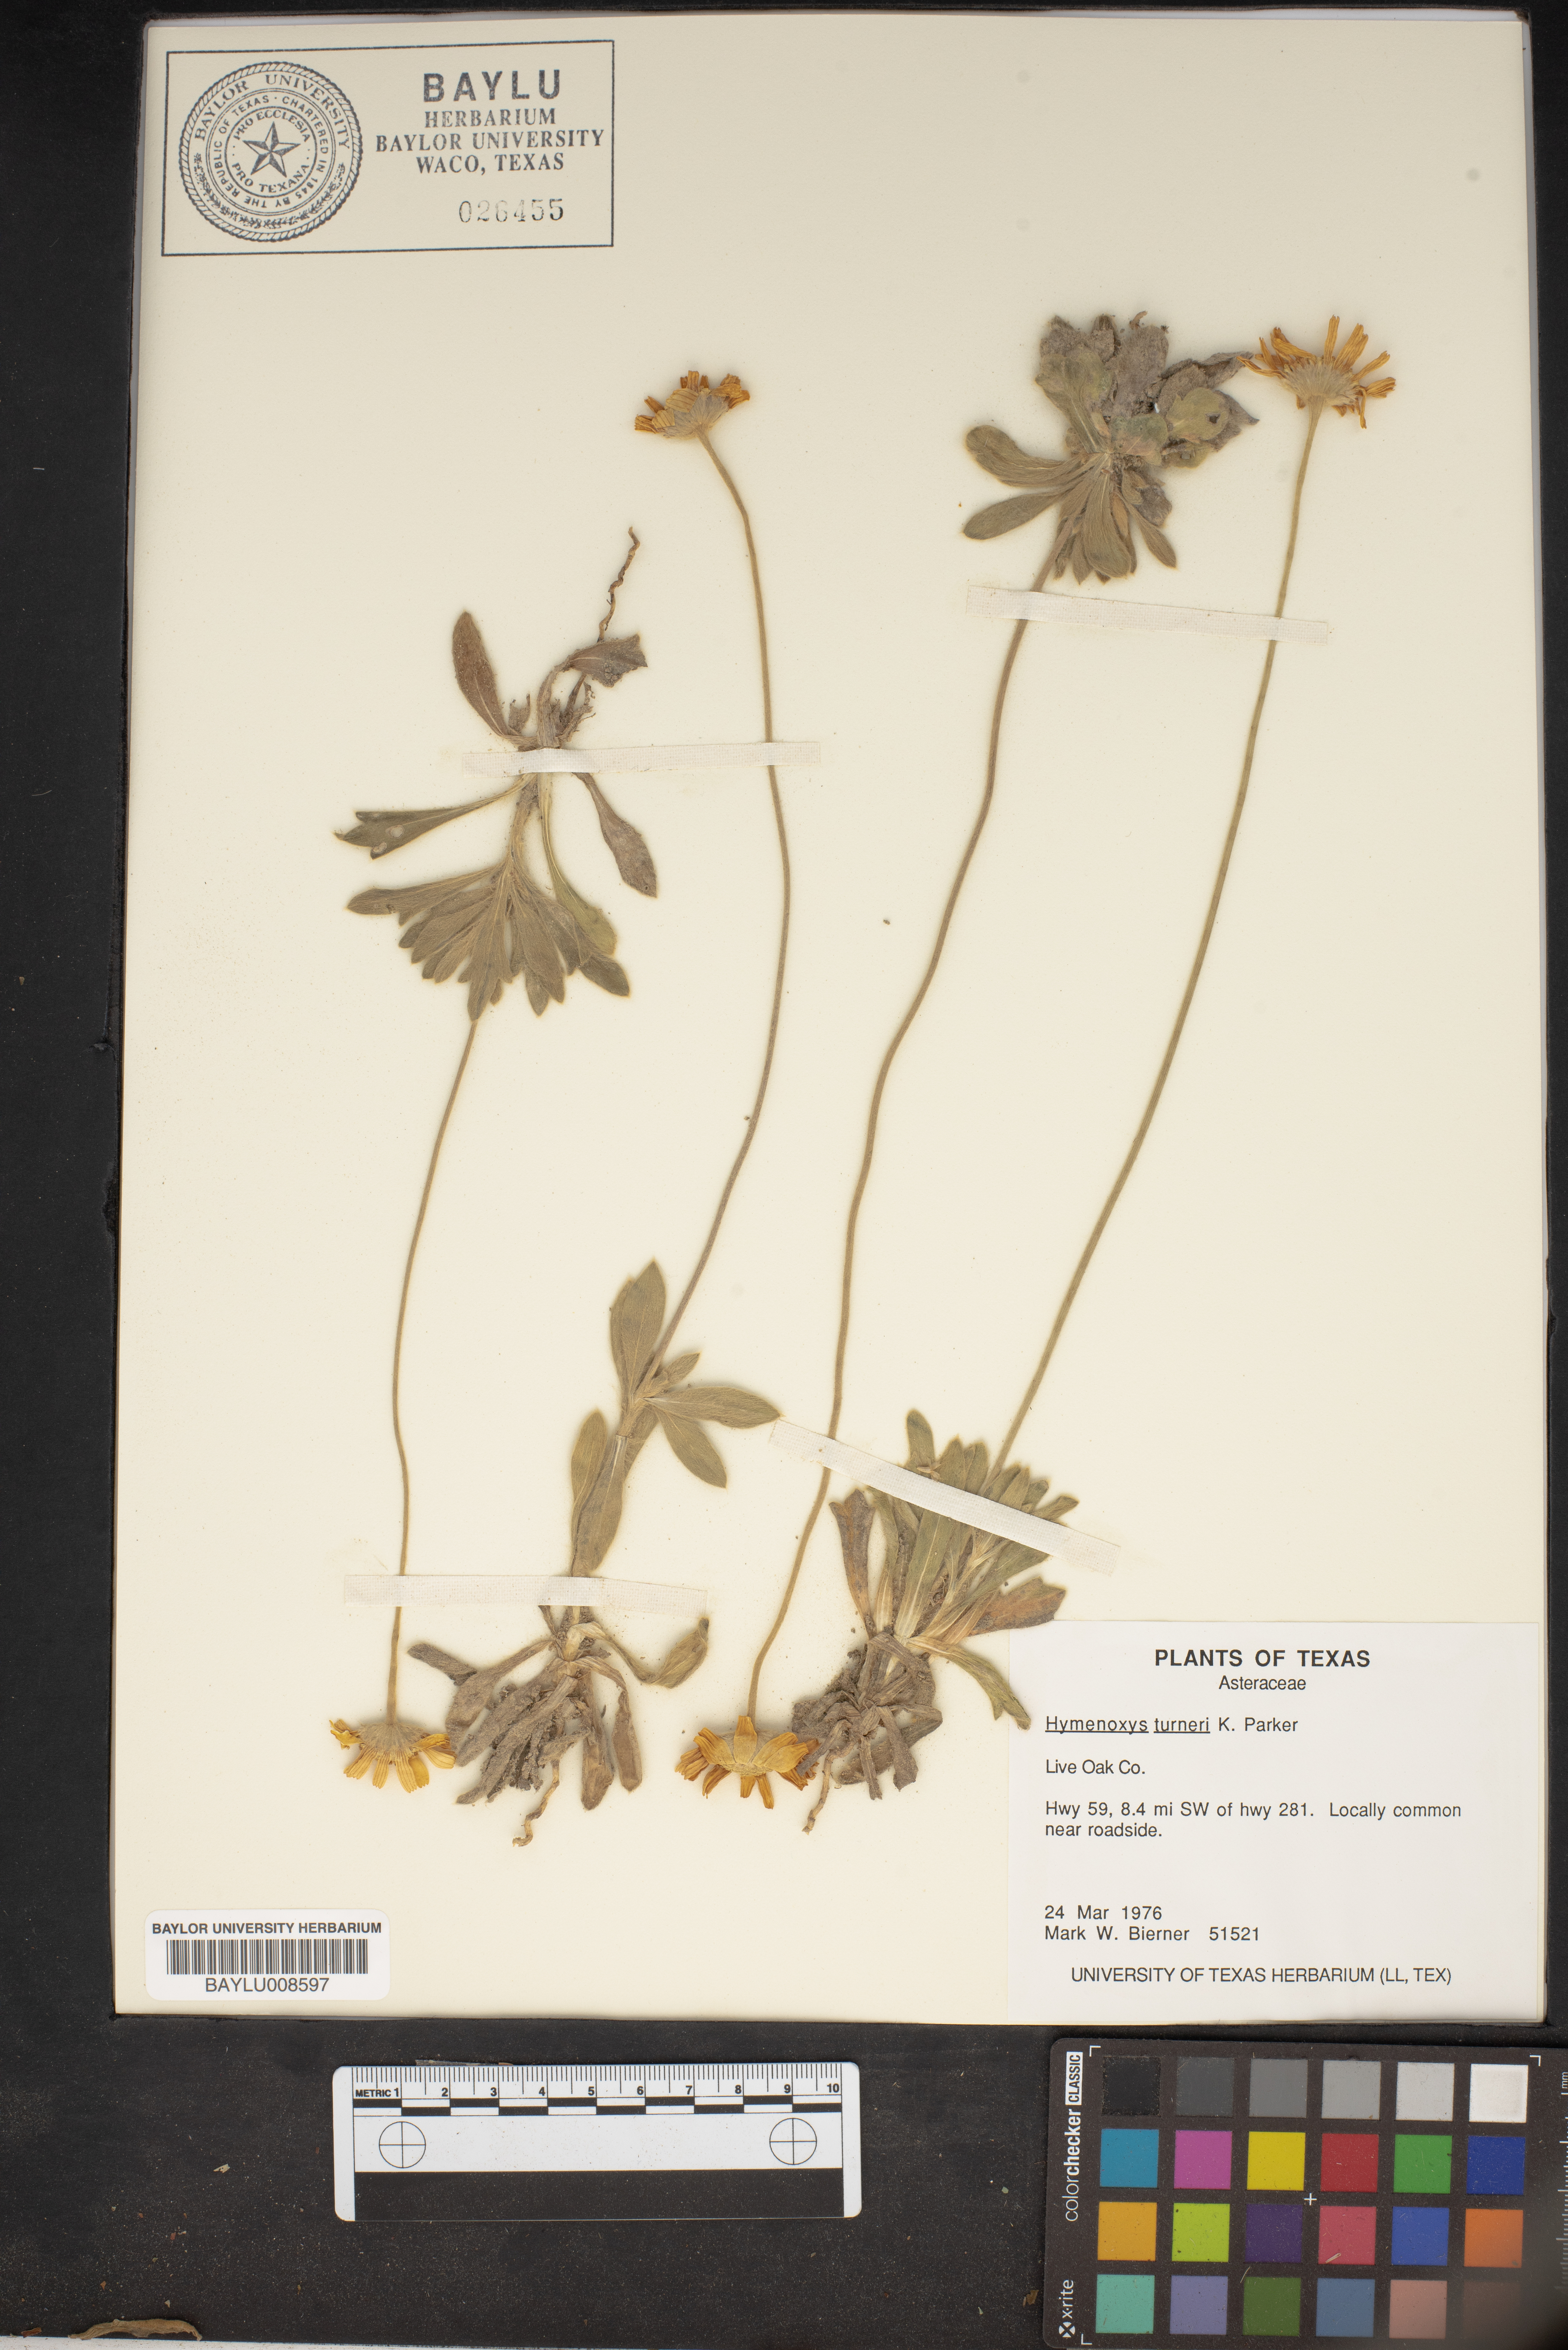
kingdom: Plantae
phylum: Tracheophyta
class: Magnoliopsida
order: Asterales
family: Asteraceae
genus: Tetraneuris
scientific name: Tetraneuris turneri
